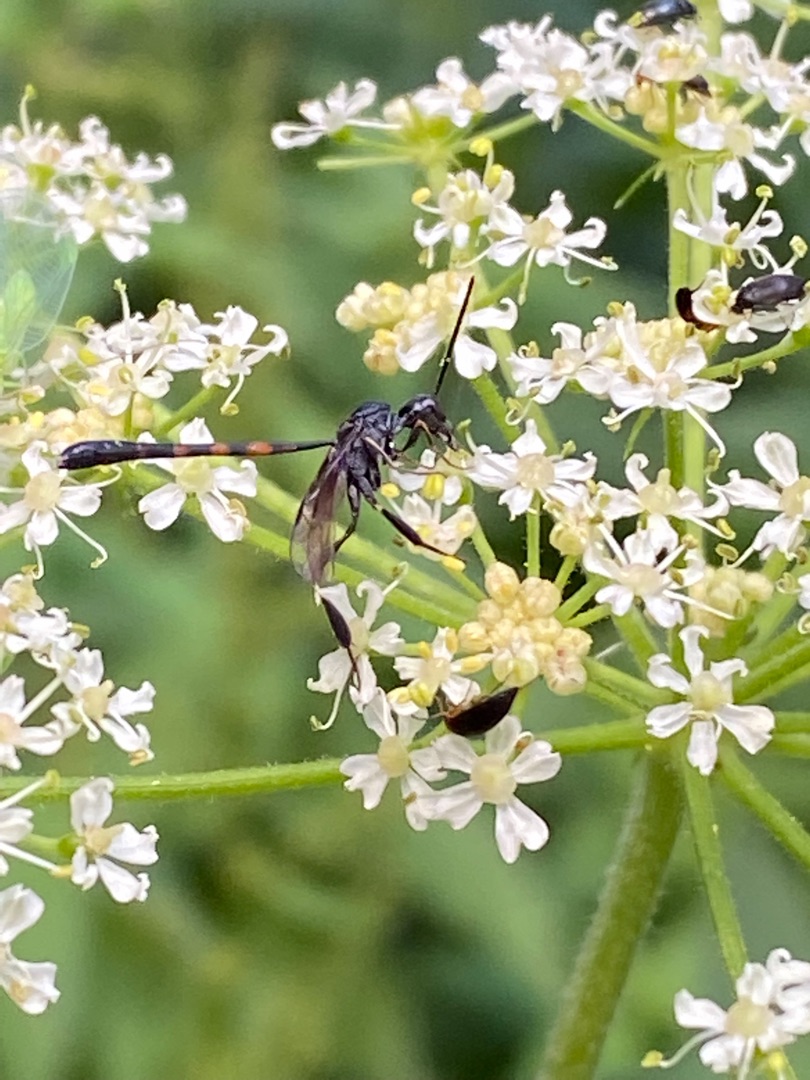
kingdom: Animalia
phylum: Arthropoda
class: Insecta
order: Hymenoptera
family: Gasteruptiidae
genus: Gasteruption
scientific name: Gasteruption
